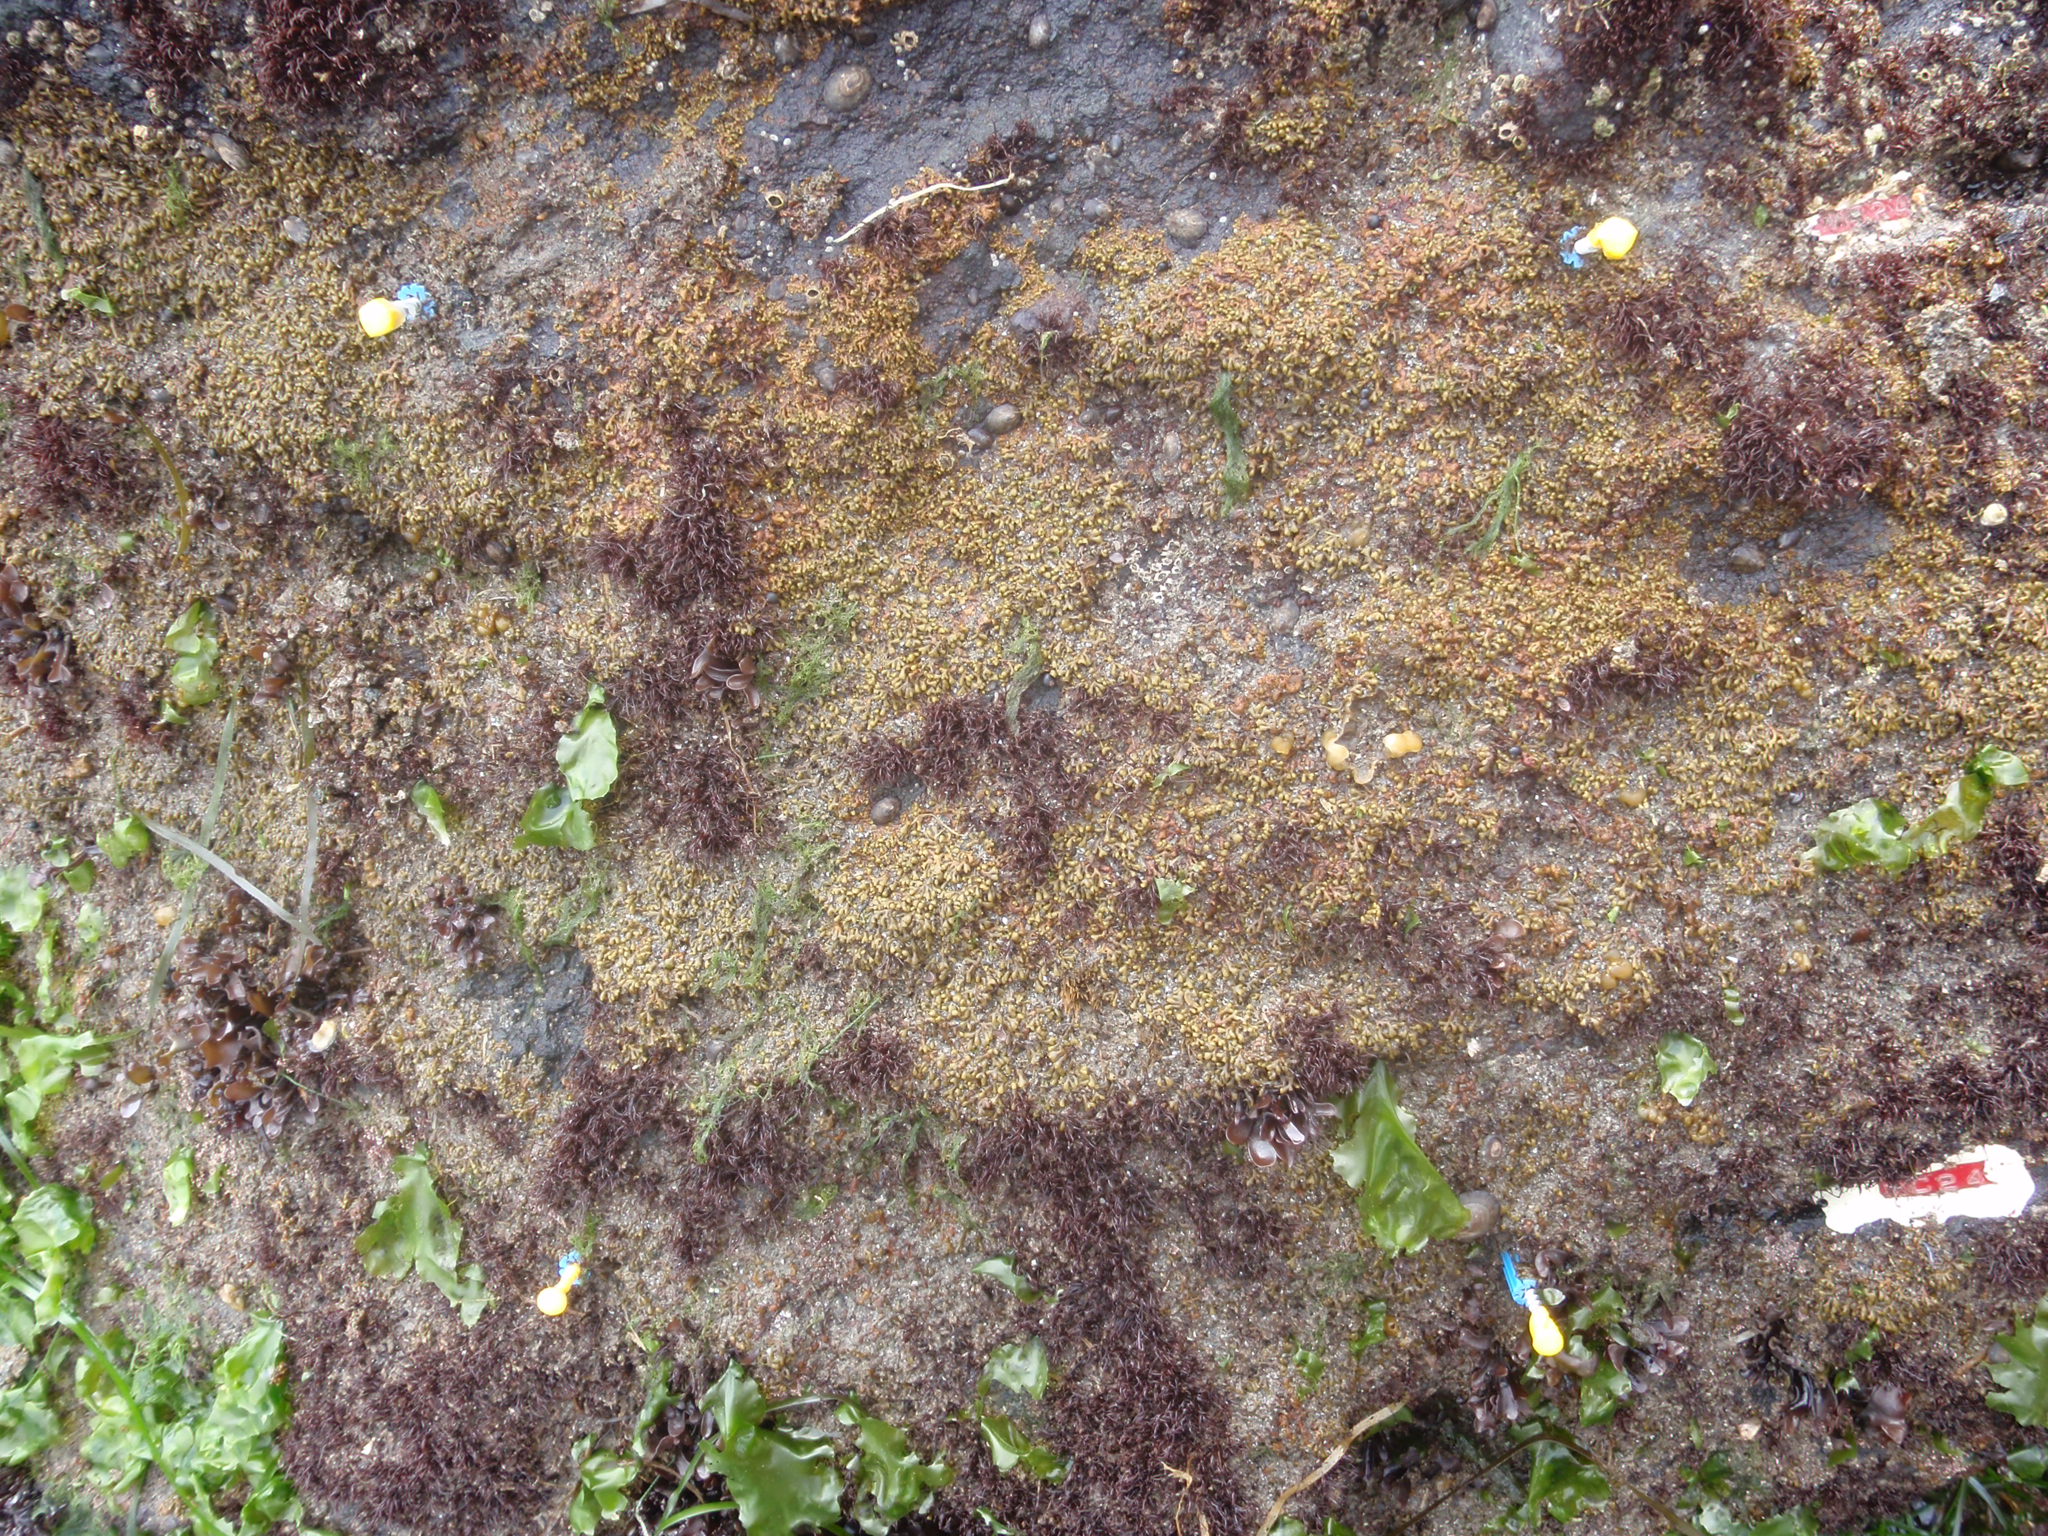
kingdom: Plantae
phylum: Rhodophyta
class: Florideophyceae
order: Gigartinales
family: Endocladiaceae
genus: Gloiopeltis
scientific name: Gloiopeltis furcata
